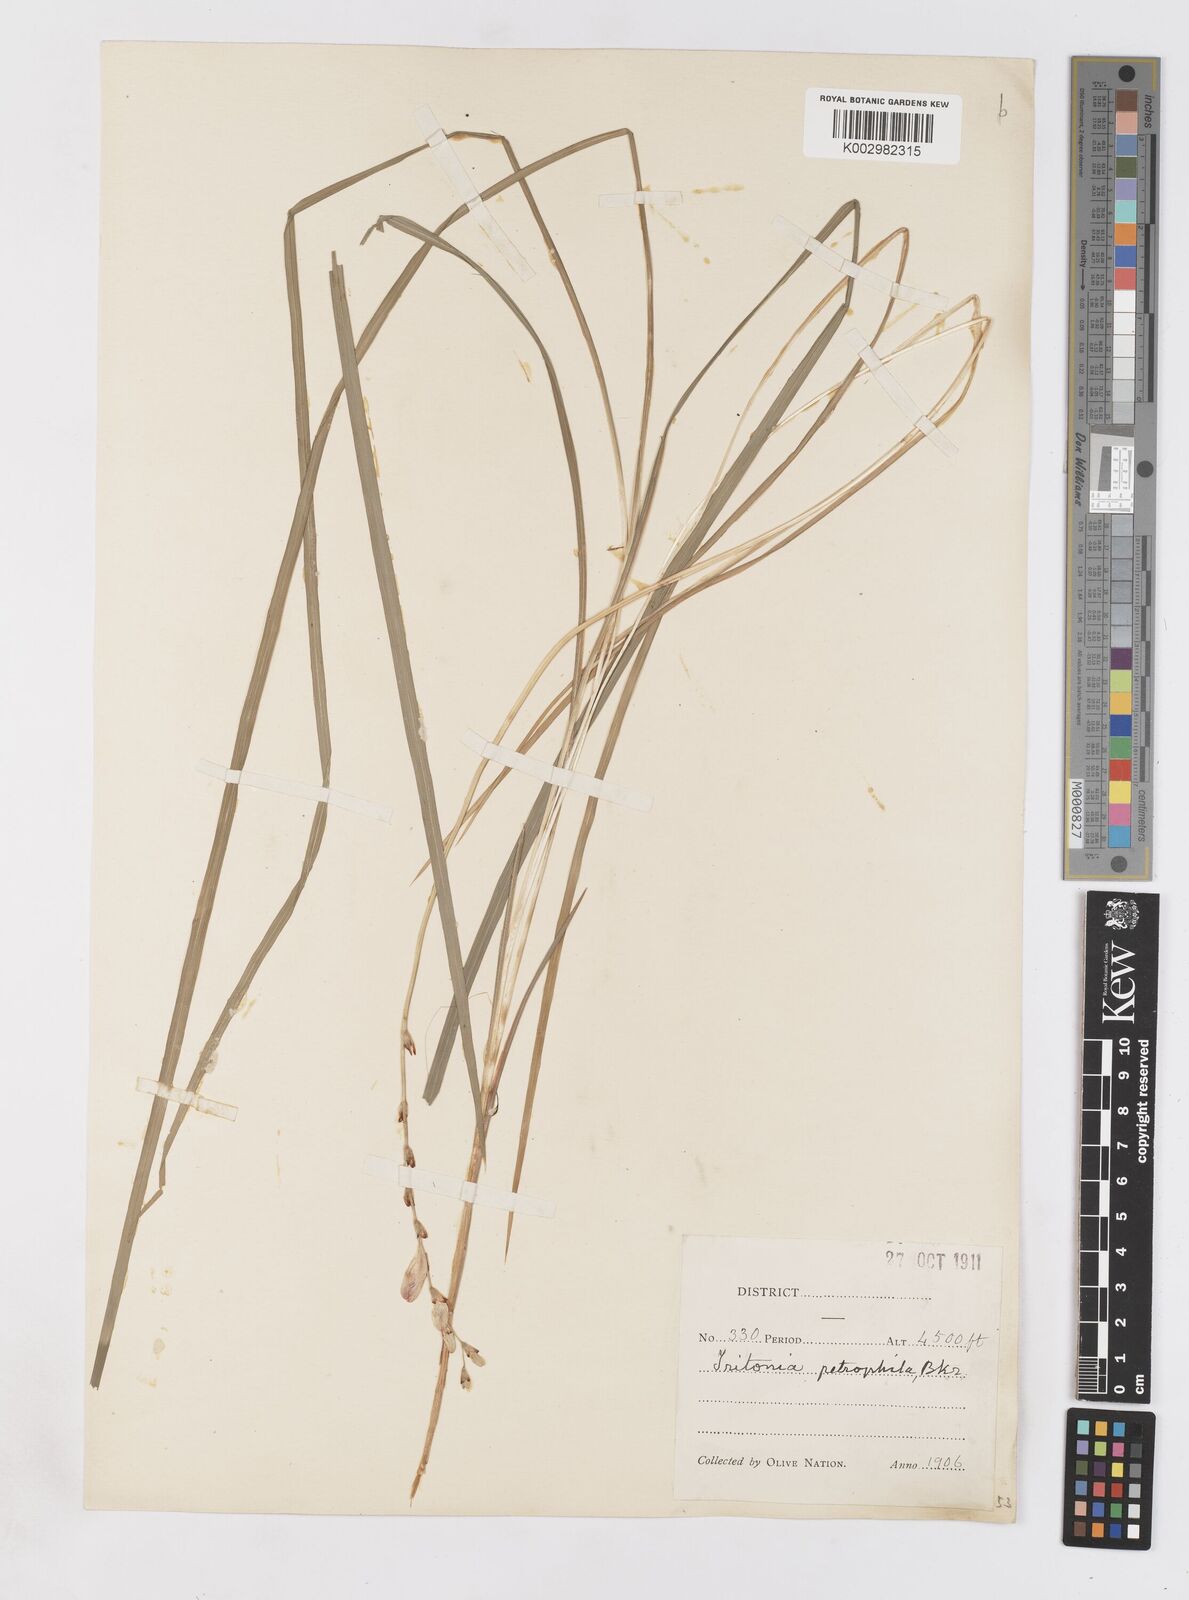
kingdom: Plantae
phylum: Tracheophyta
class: Liliopsida
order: Asparagales
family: Iridaceae
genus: Tritonia
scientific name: Tritonia nelsonii
